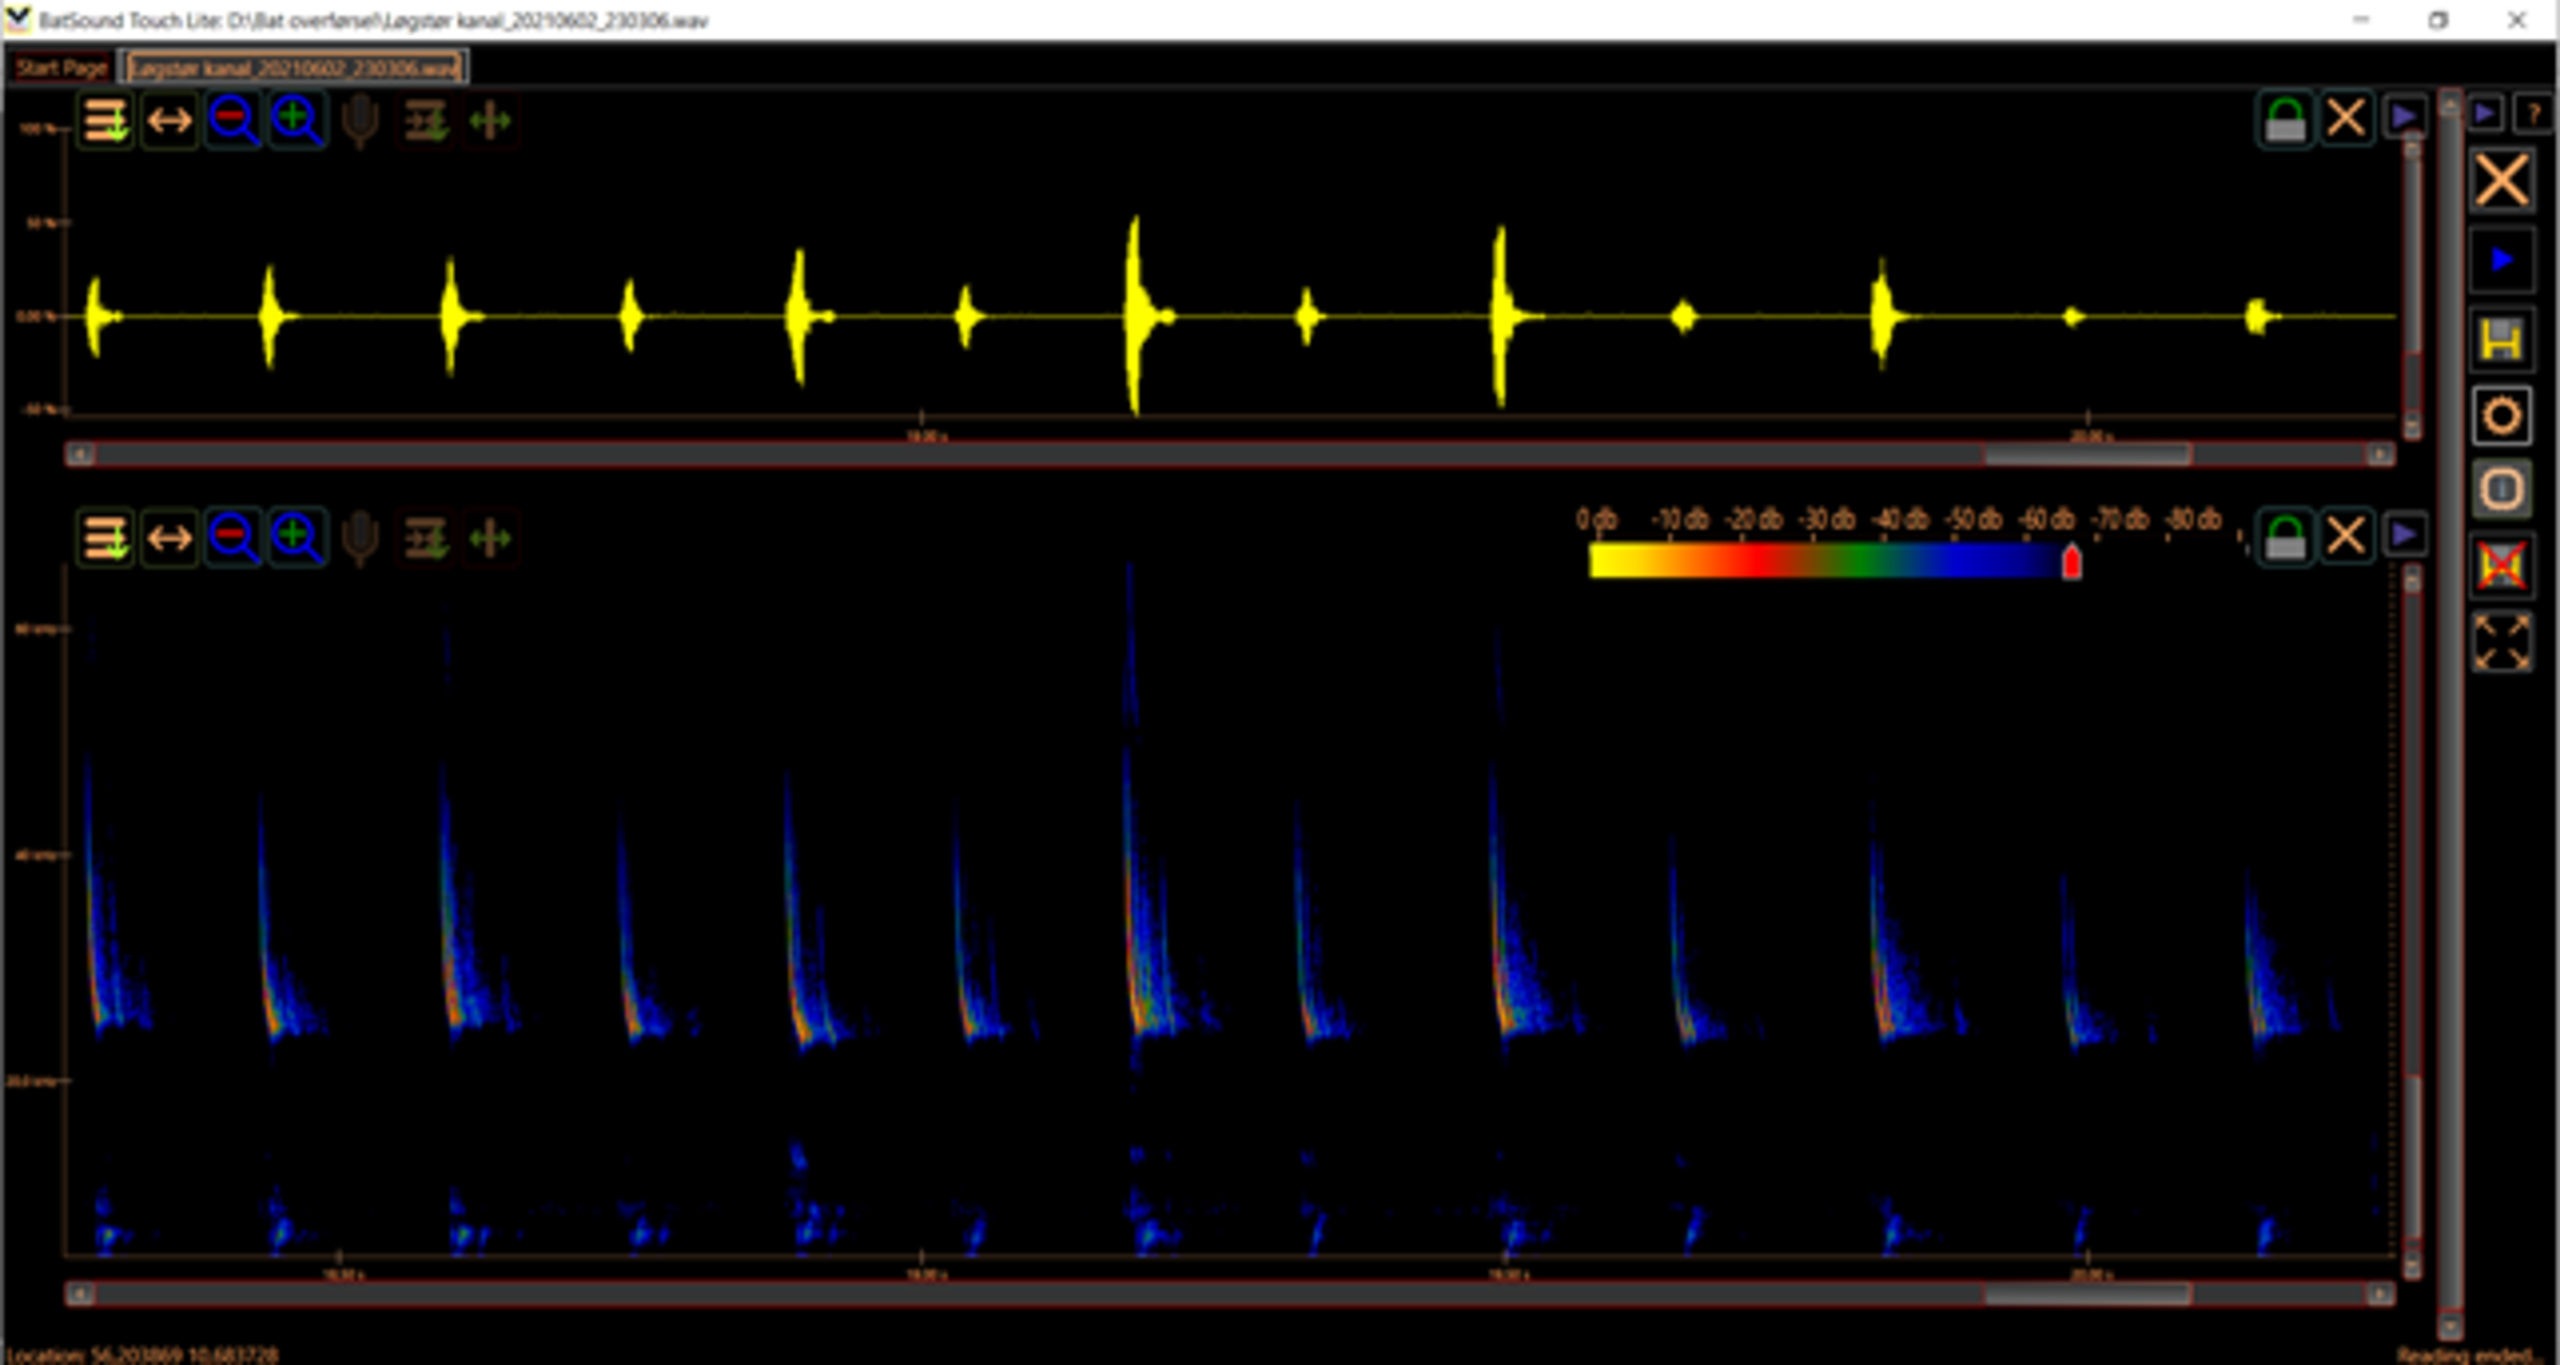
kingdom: Animalia
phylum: Chordata
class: Mammalia
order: Chiroptera
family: Vespertilionidae
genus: Eptesicus
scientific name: Eptesicus serotinus
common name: Sydflagermus
